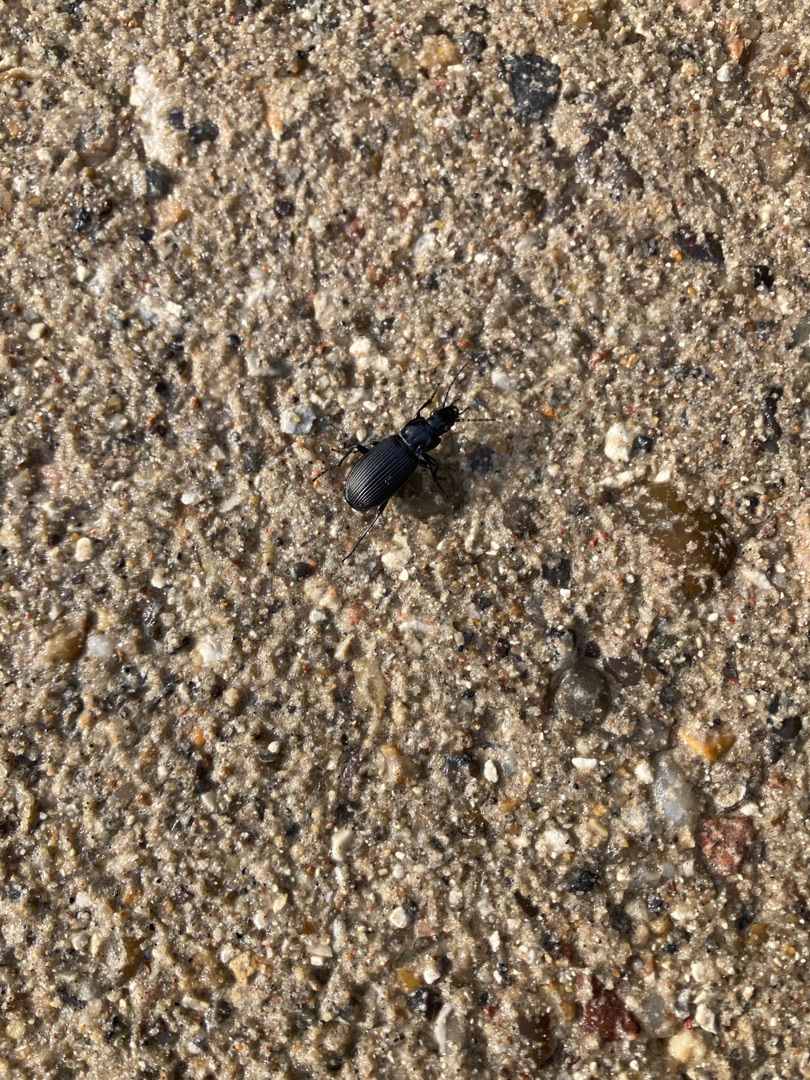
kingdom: Animalia
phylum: Arthropoda
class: Insecta
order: Coleoptera
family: Carabidae
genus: Pterostichus
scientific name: Pterostichus niger
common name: Skovjordløber
